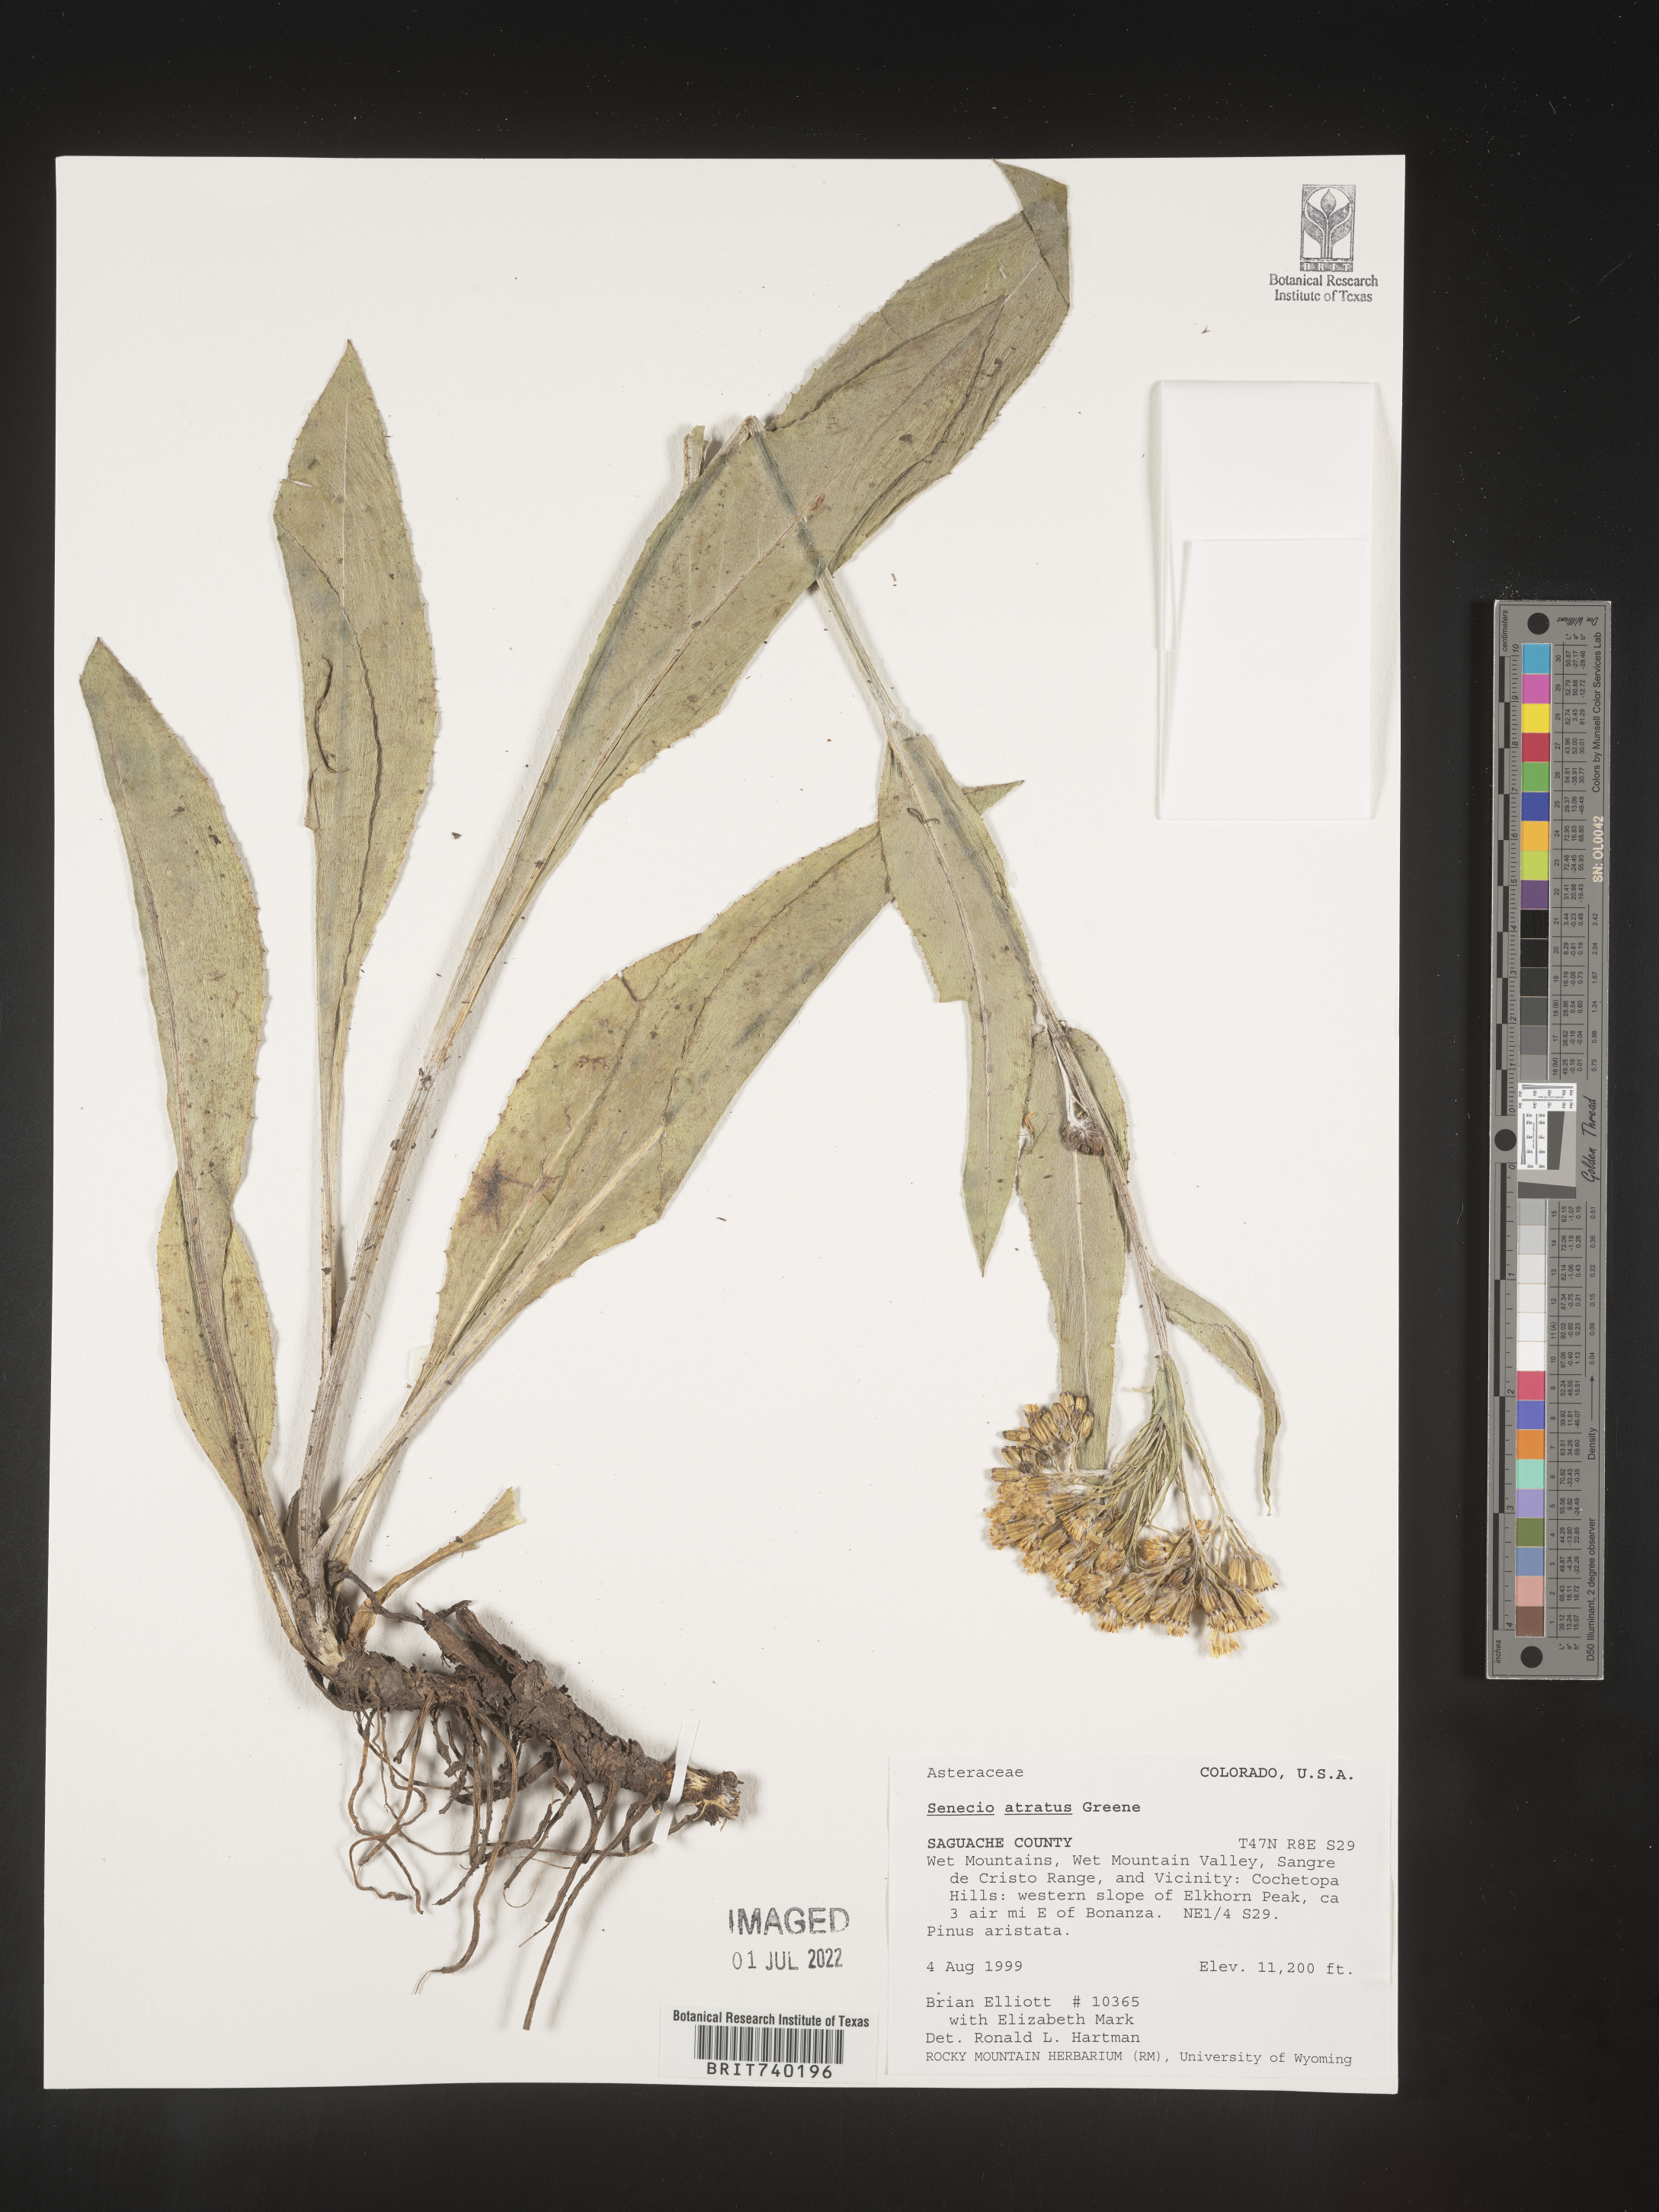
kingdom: Plantae
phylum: Tracheophyta
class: Magnoliopsida
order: Asterales
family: Asteraceae
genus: Senecio
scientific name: Senecio atratus
